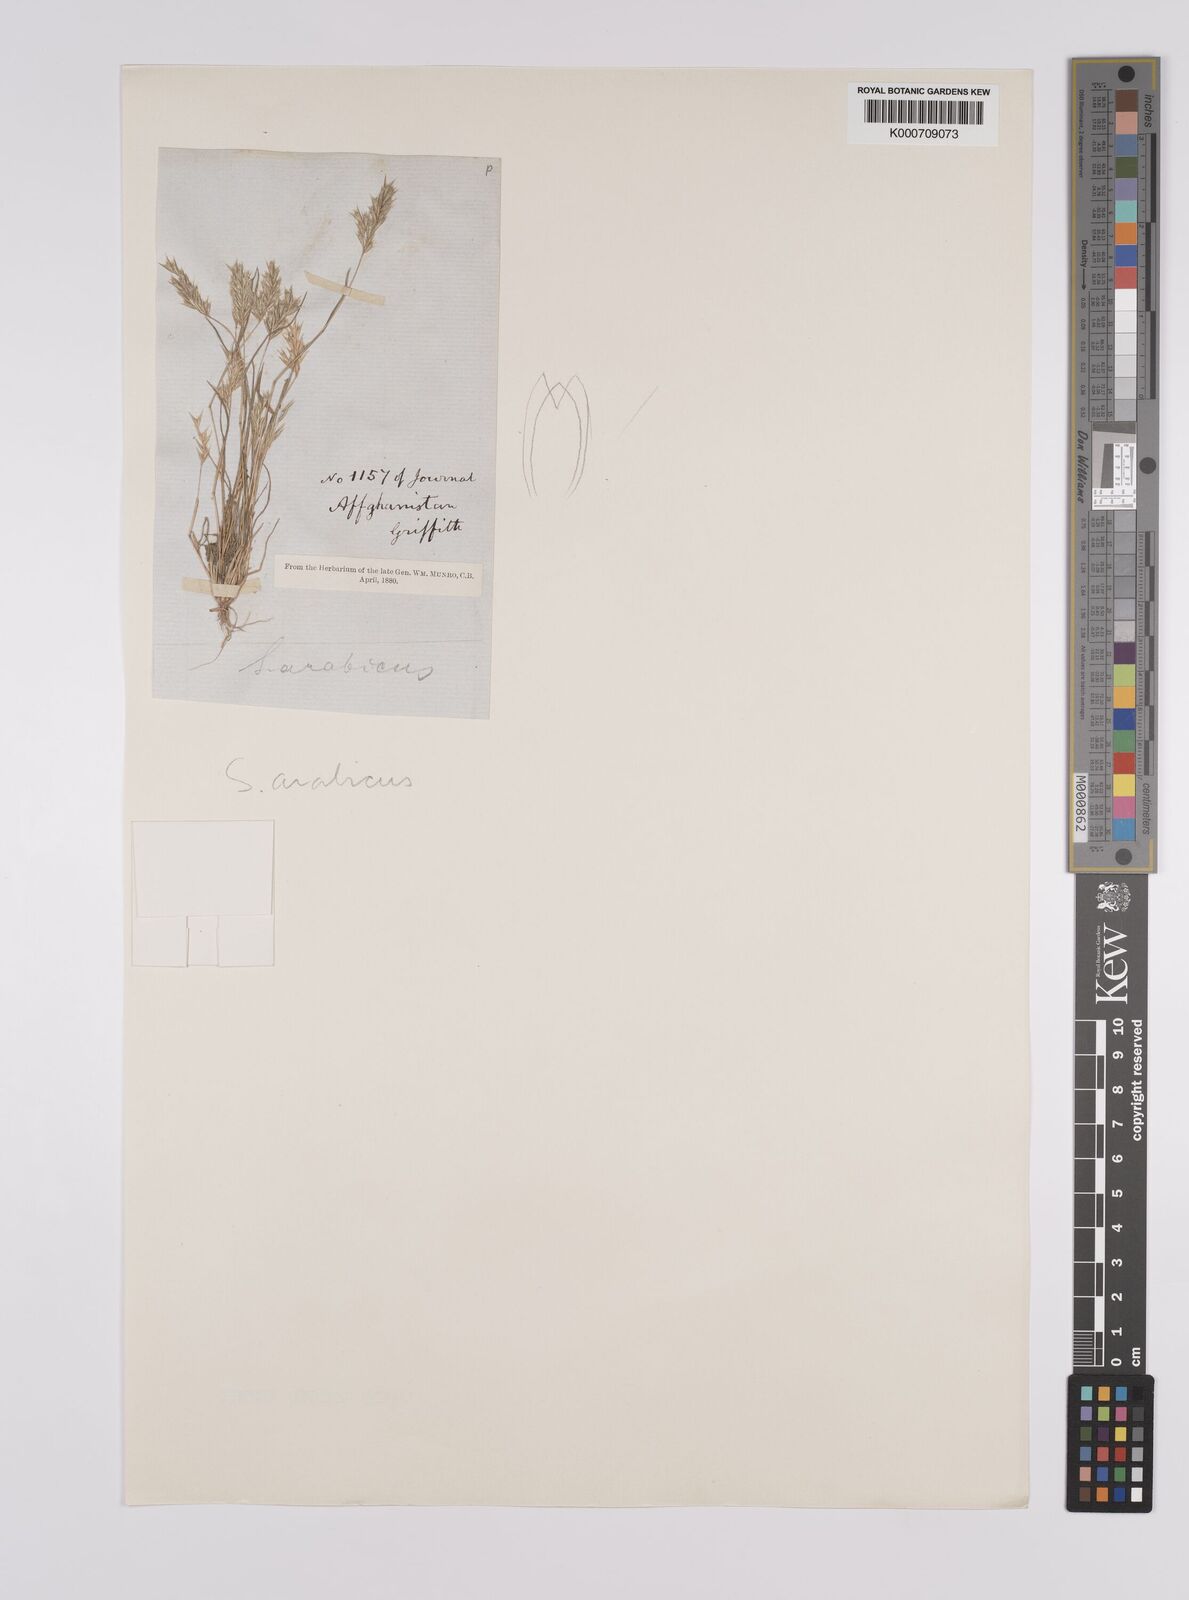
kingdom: Plantae
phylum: Tracheophyta
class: Liliopsida
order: Poales
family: Poaceae
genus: Schismus
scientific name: Schismus arabicus
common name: Arabian schismus
